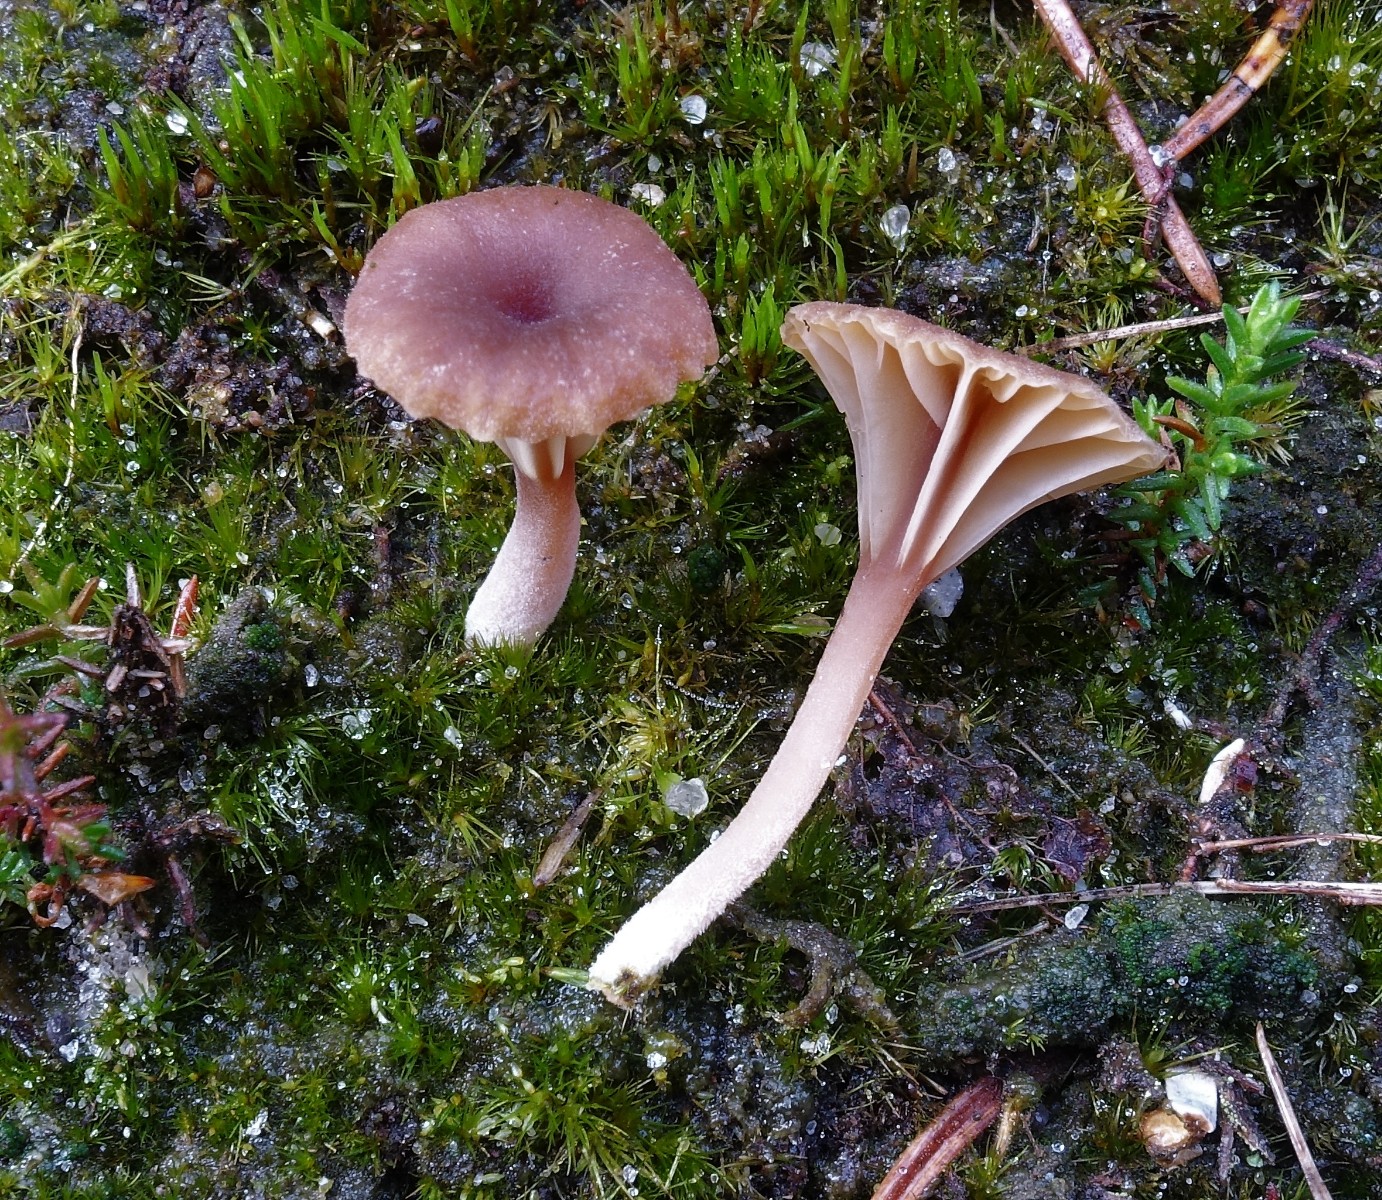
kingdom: Fungi
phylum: Basidiomycota
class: Agaricomycetes
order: Agaricales
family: Hygrophoraceae
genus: Lichenomphalia
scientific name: Lichenomphalia umbellifera
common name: tørve-lavhat
